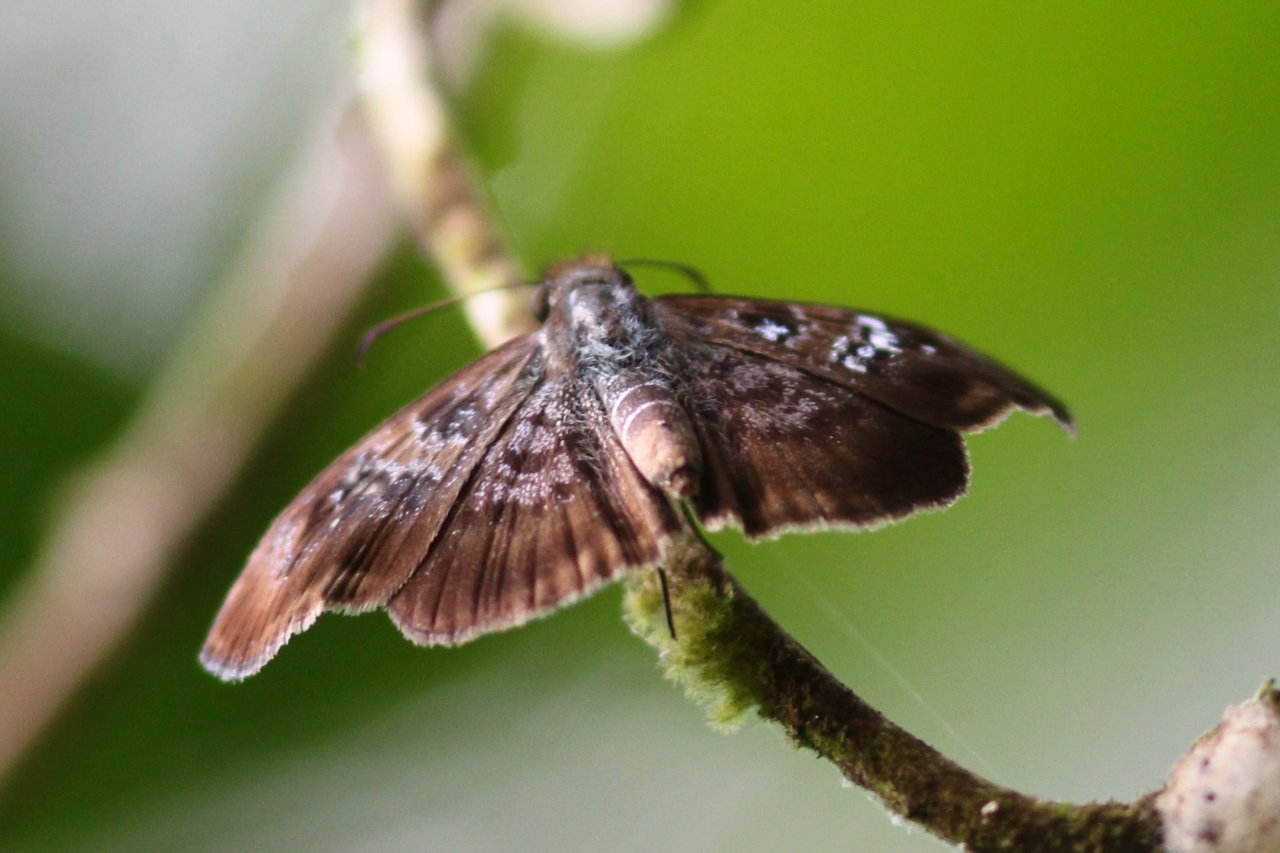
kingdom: Animalia
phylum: Arthropoda
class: Insecta
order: Lepidoptera
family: Hesperiidae
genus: Sophista
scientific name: Sophista bifasciata
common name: Metal-studded Skipper
